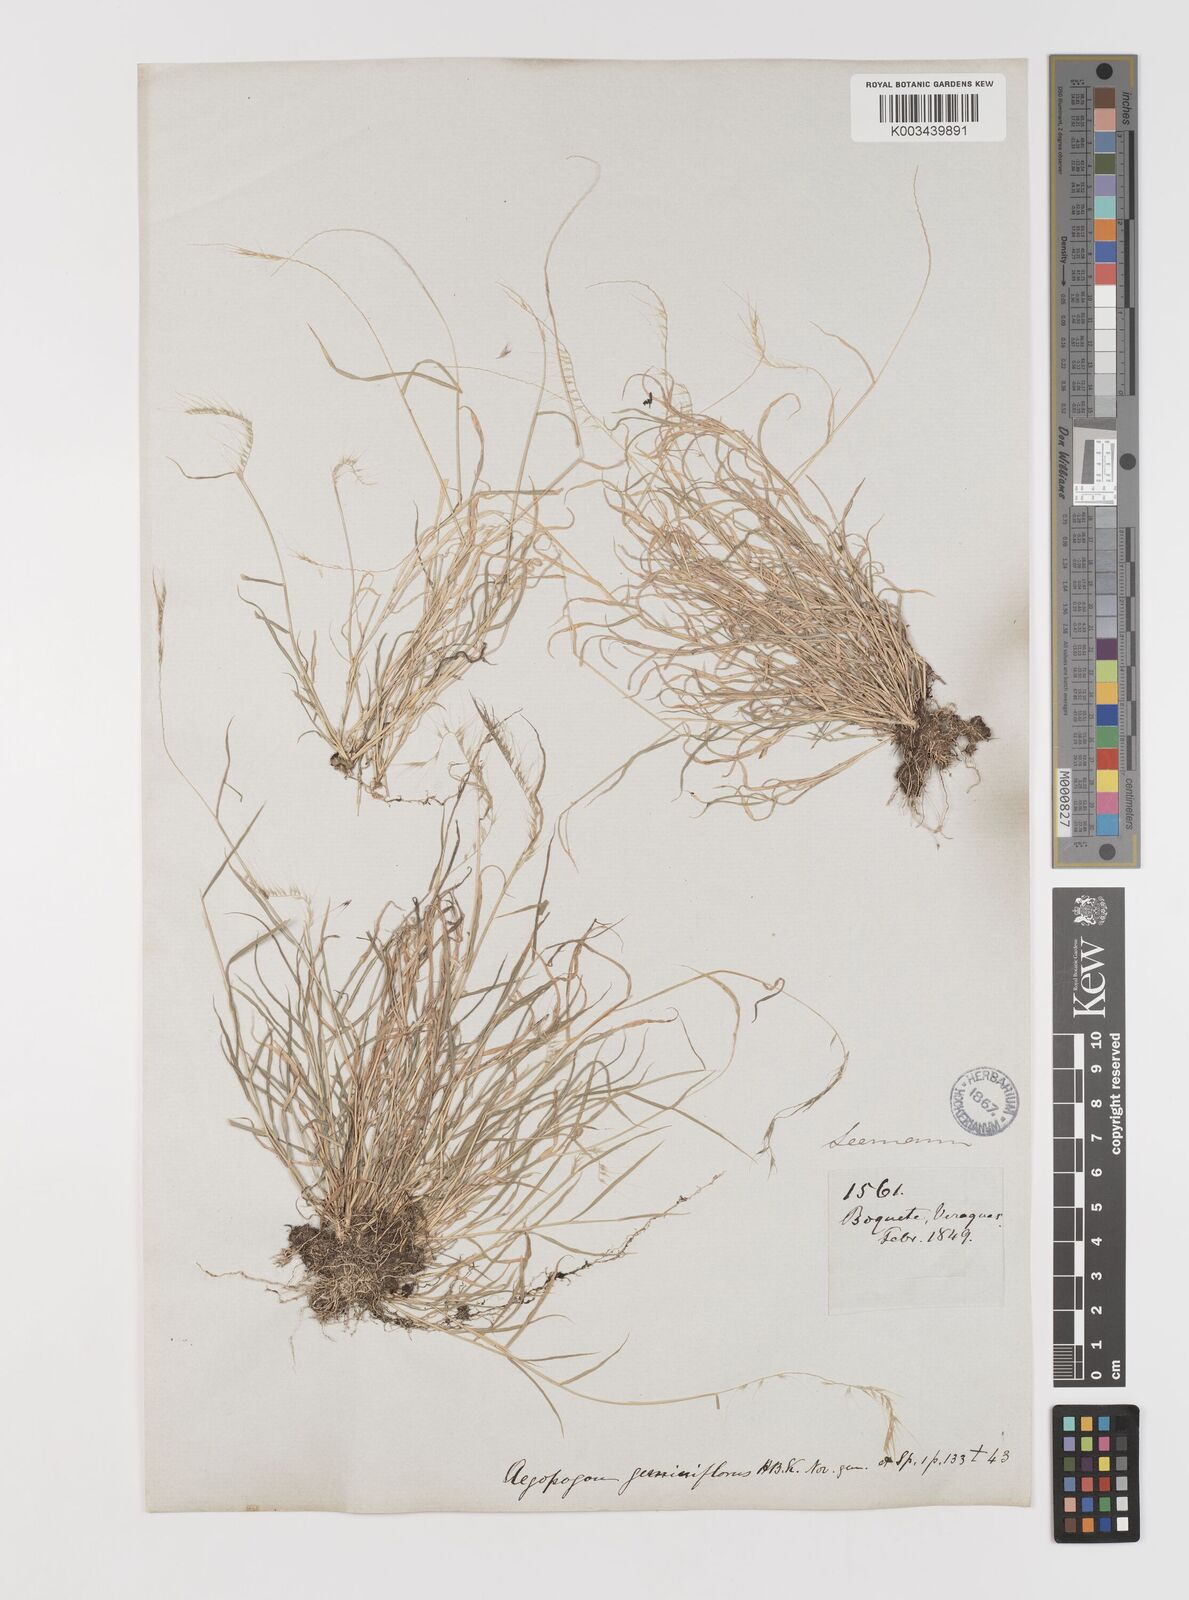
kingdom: Plantae
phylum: Tracheophyta
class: Liliopsida
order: Poales
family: Poaceae
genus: Muhlenbergia
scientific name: Muhlenbergia cenchroides
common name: Relaxgrass
